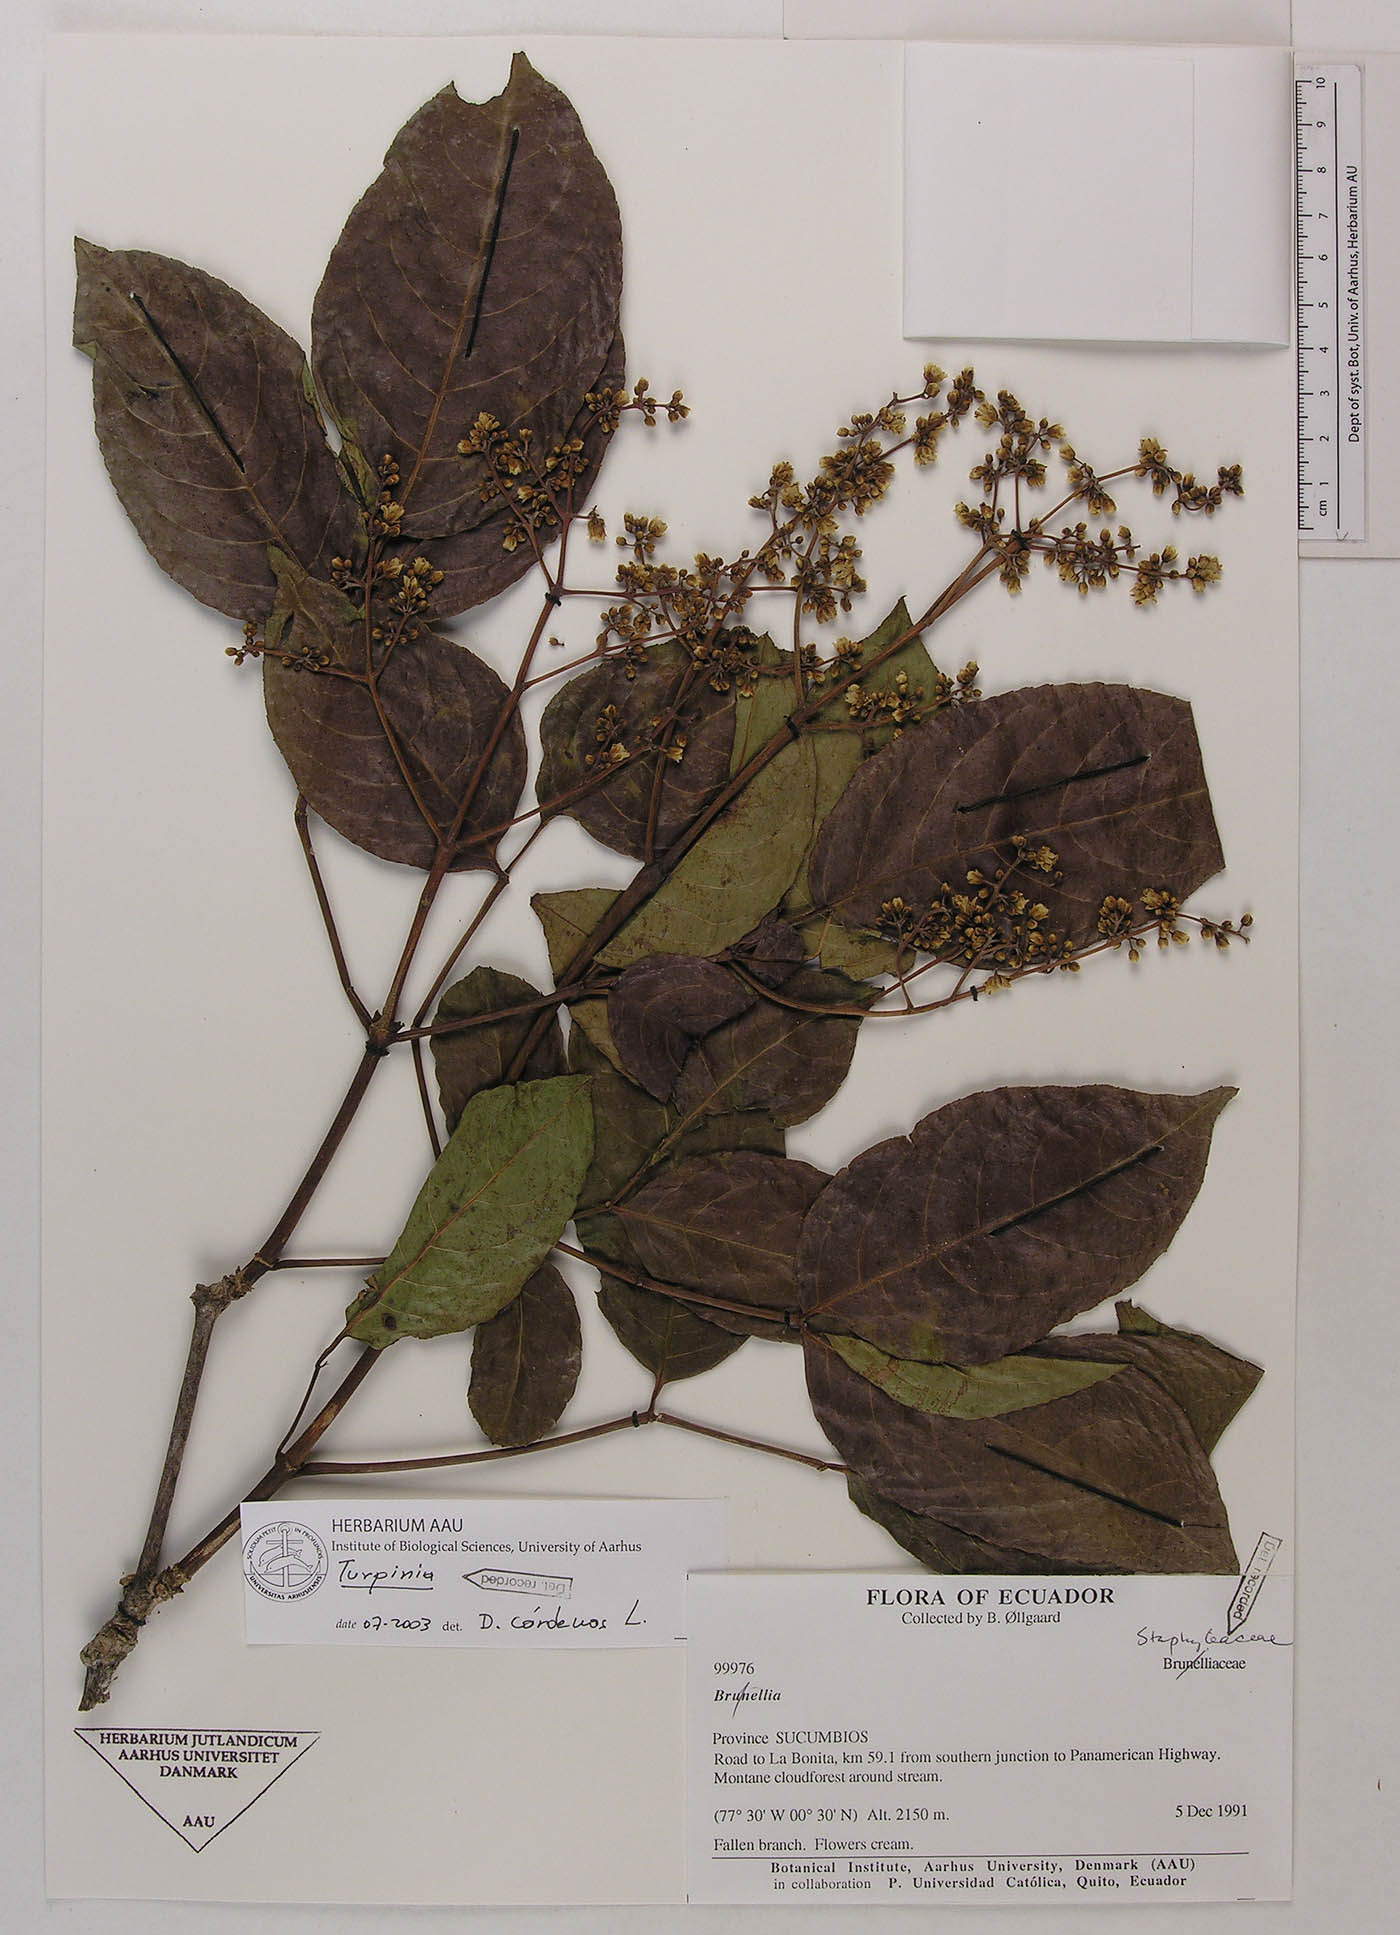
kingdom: Plantae
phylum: Tracheophyta
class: Magnoliopsida
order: Crossosomatales
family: Staphyleaceae
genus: Turpinia
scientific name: Turpinia occidentalis
